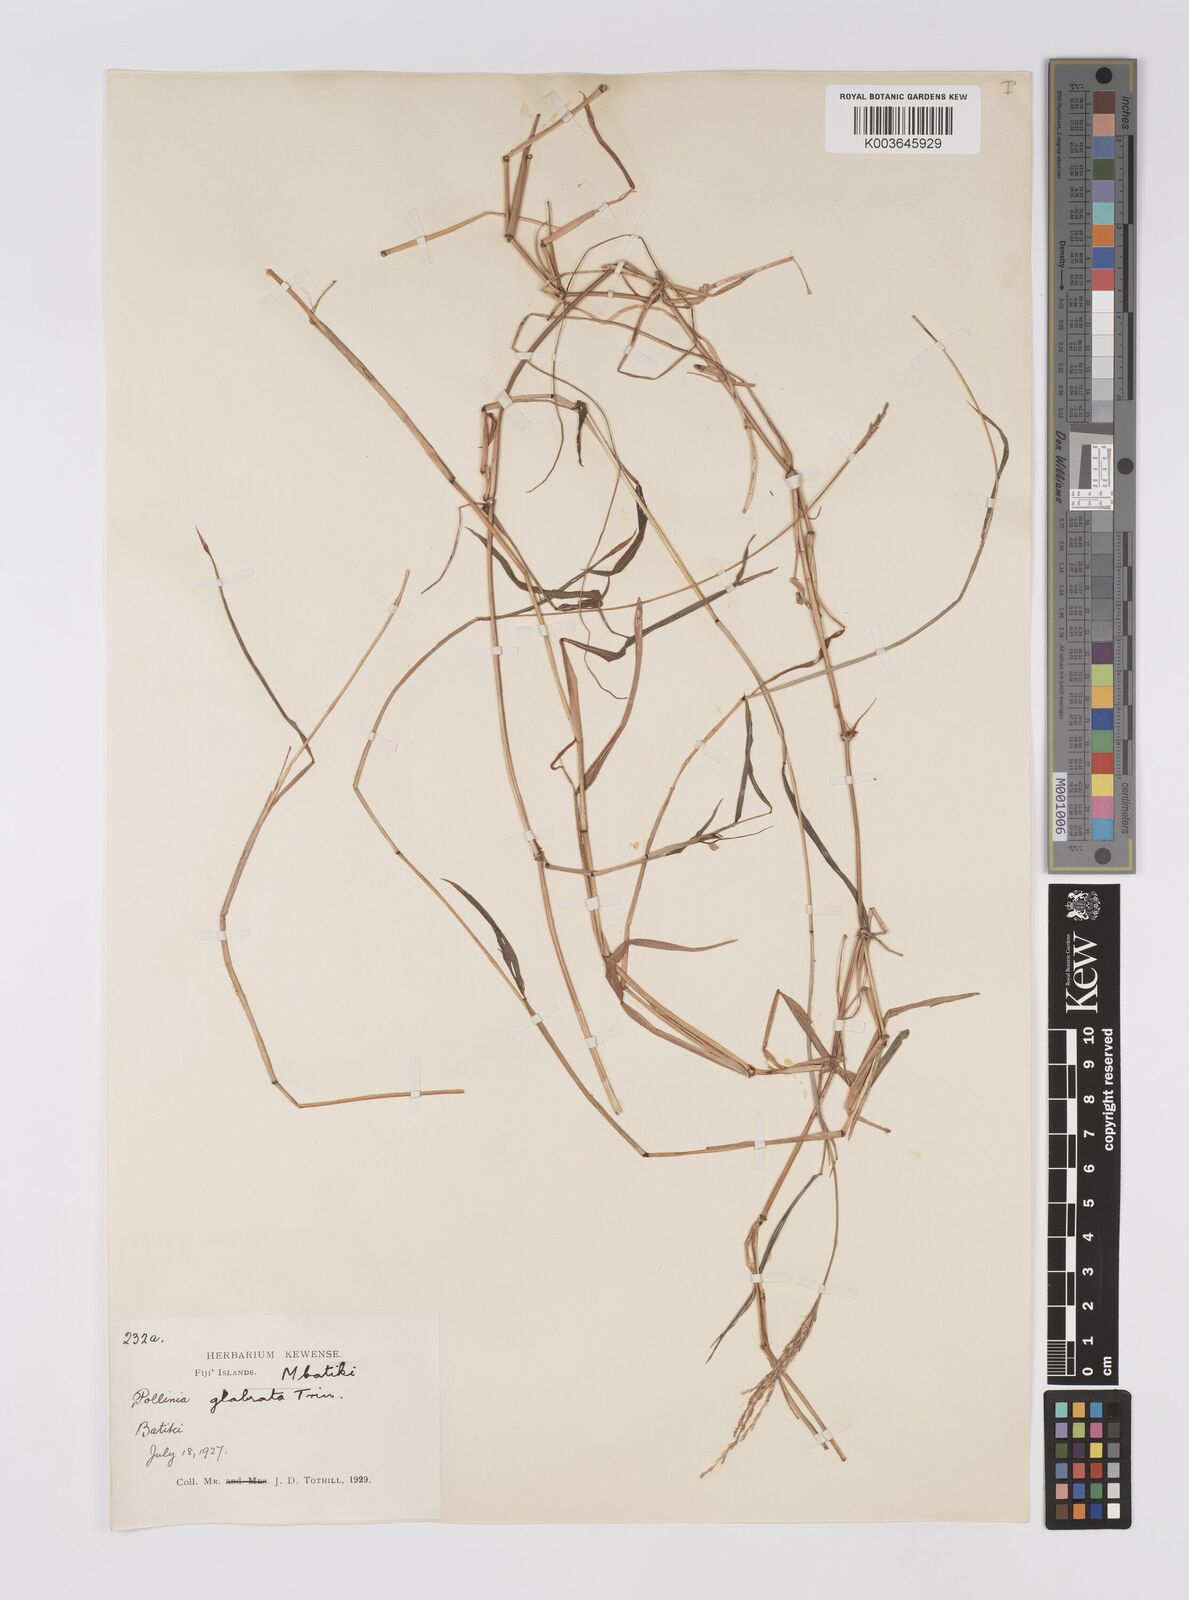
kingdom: Plantae
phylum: Tracheophyta
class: Liliopsida
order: Poales
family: Poaceae
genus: Microstegium
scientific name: Microstegium glabratum
